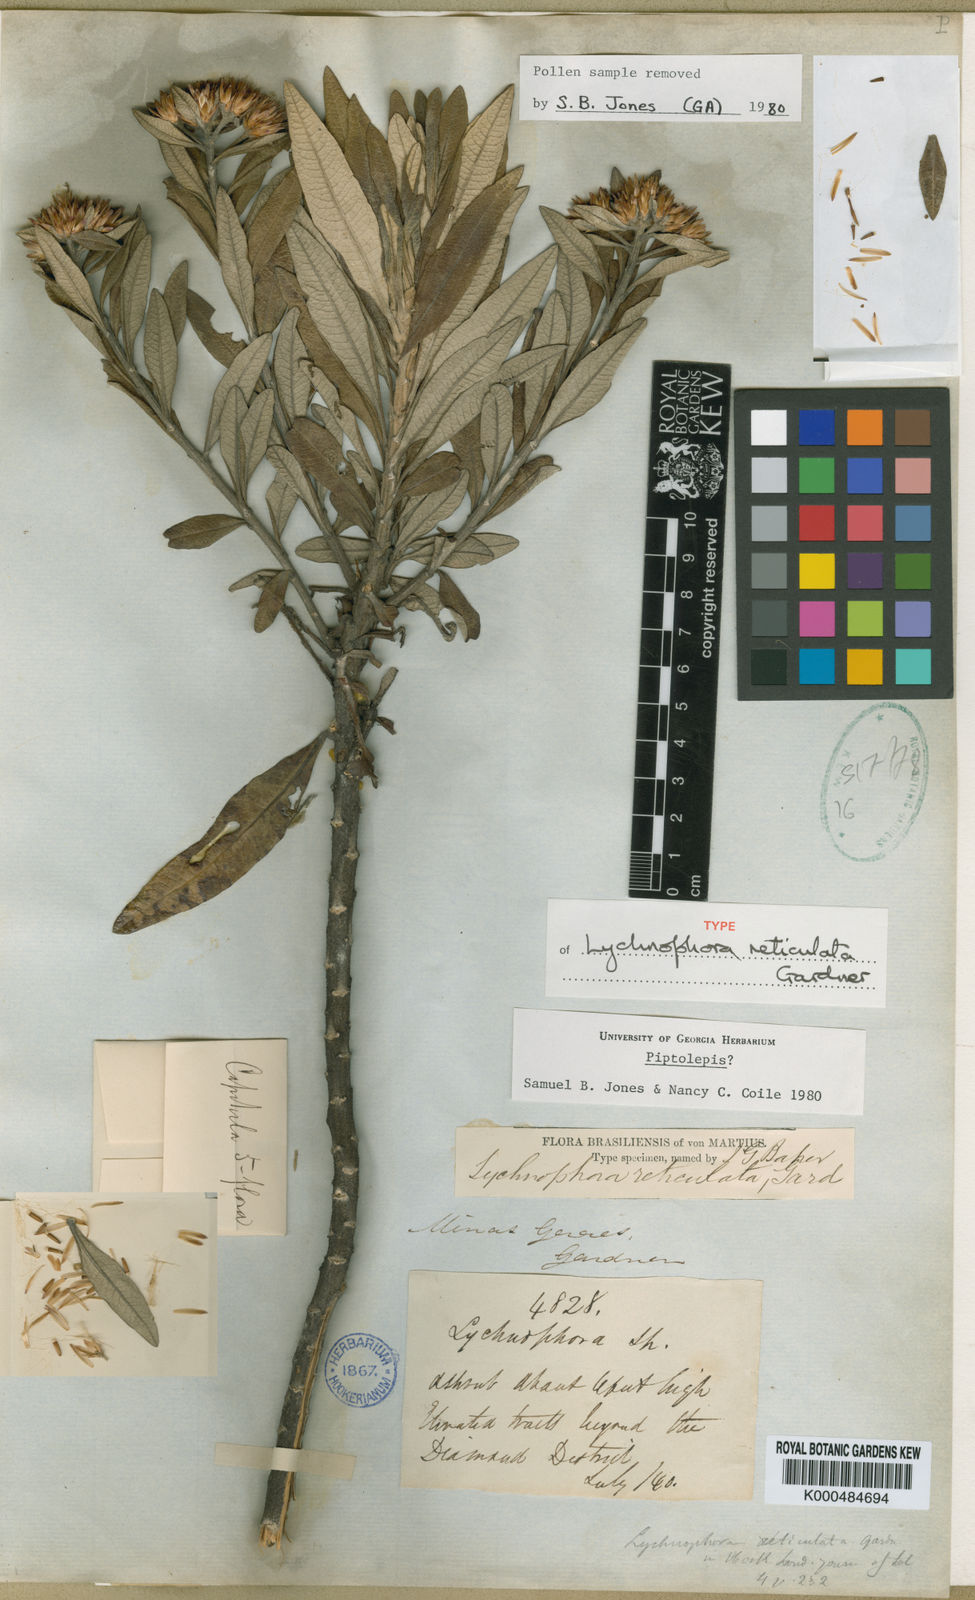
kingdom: Plantae
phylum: Tracheophyta
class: Magnoliopsida
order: Asterales
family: Asteraceae
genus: Piptolepis
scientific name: Piptolepis
